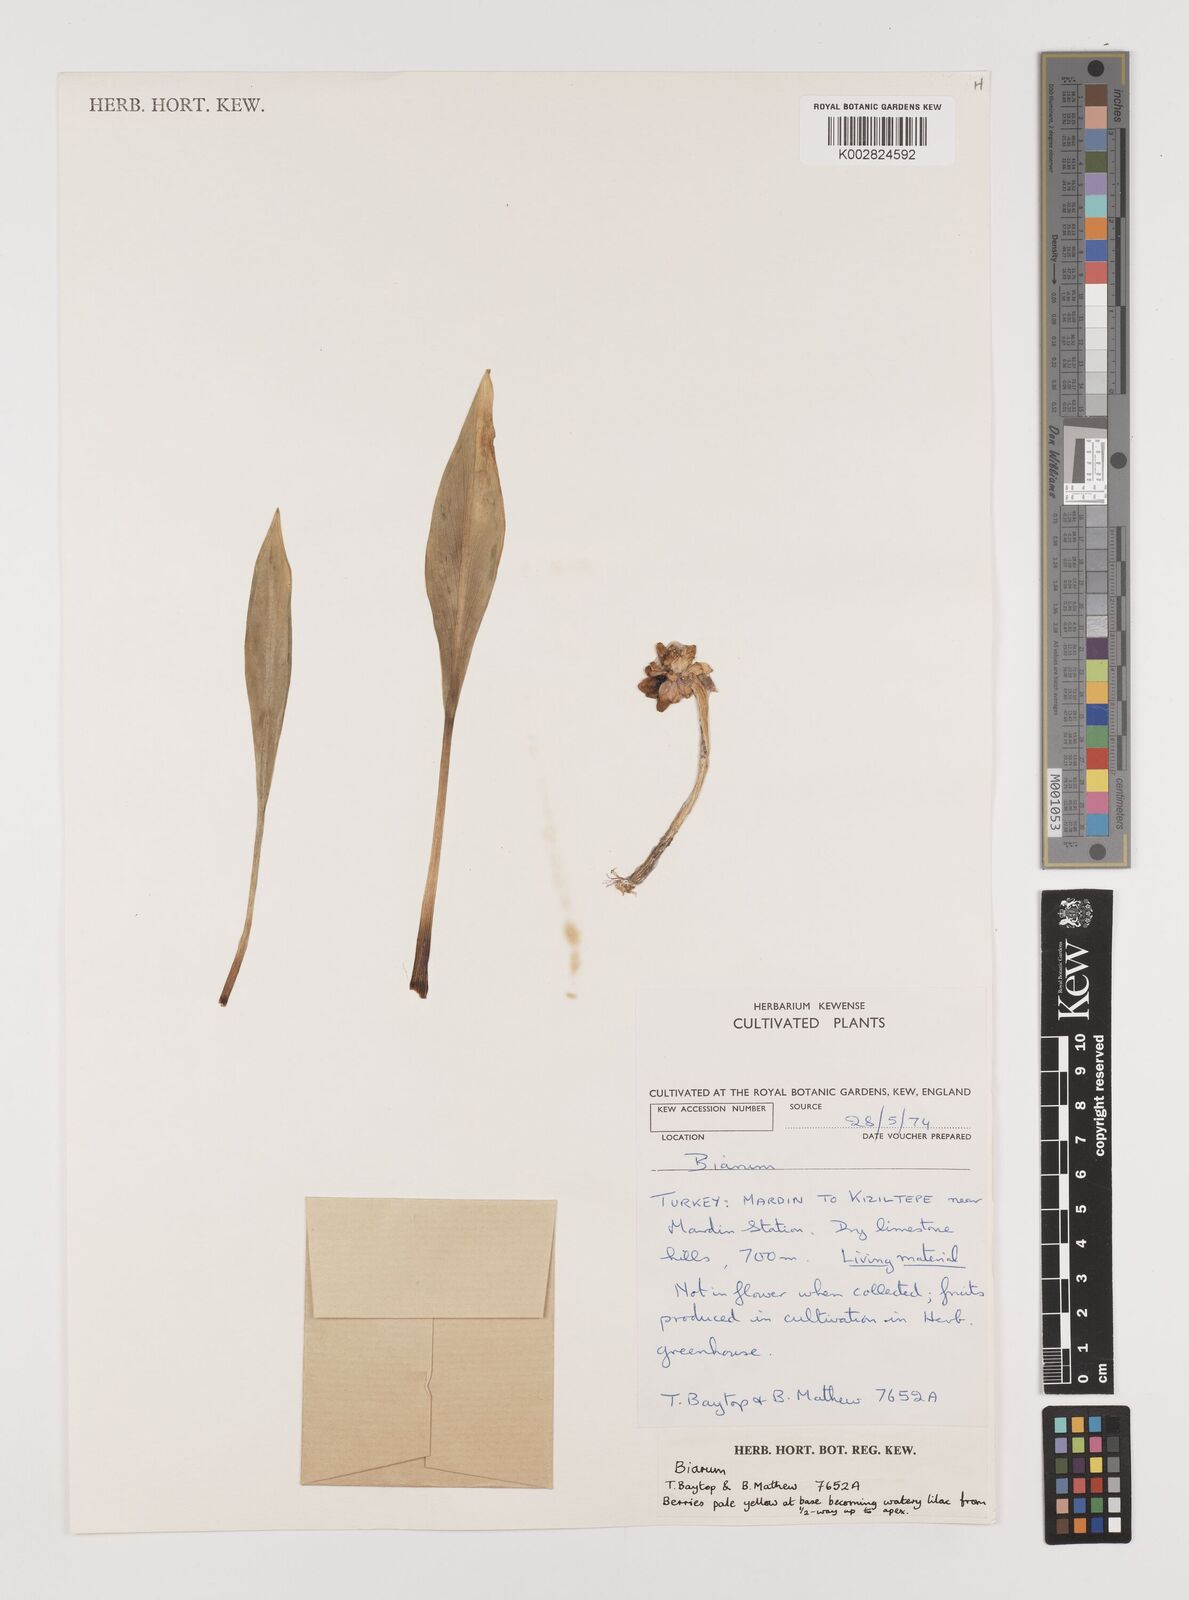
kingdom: Plantae
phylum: Tracheophyta
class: Liliopsida
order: Alismatales
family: Araceae
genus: Biarum
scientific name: Biarum
